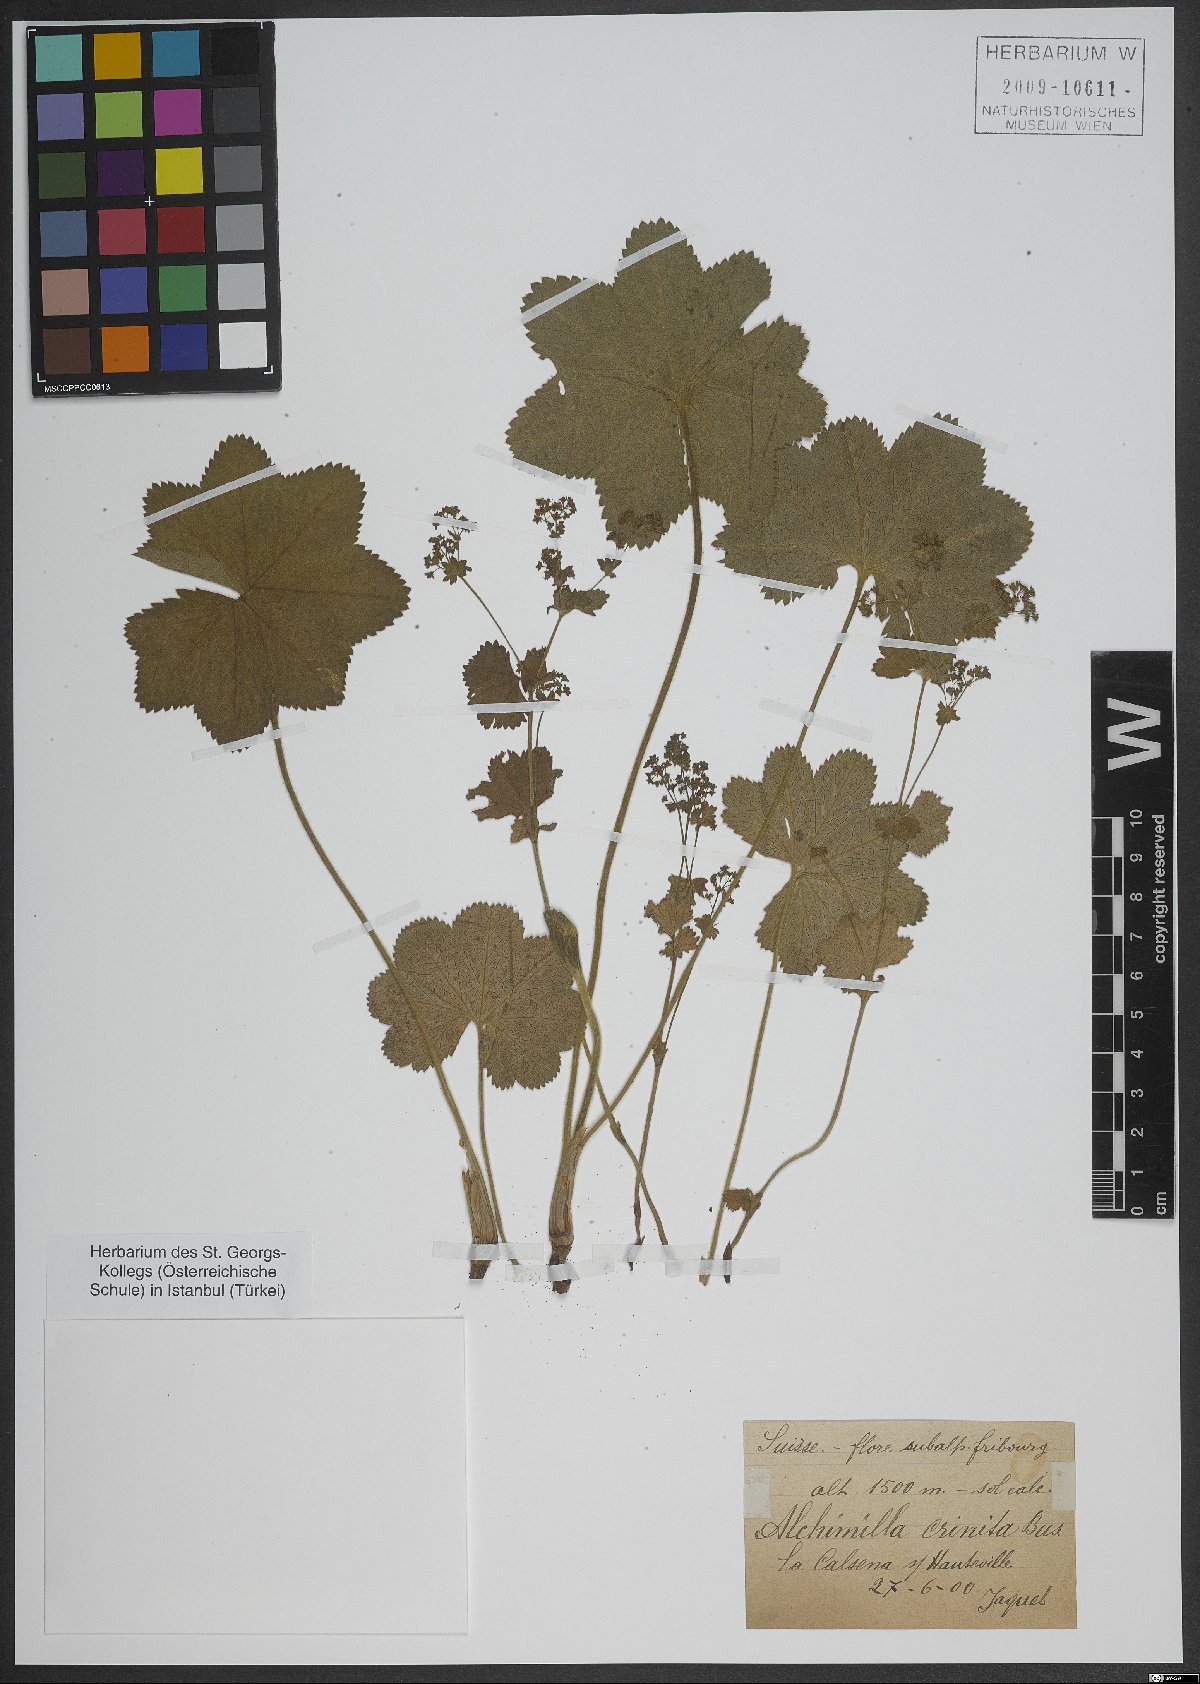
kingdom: Plantae
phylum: Tracheophyta
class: Magnoliopsida
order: Rosales
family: Rosaceae
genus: Alchemilla
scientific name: Alchemilla crinita
